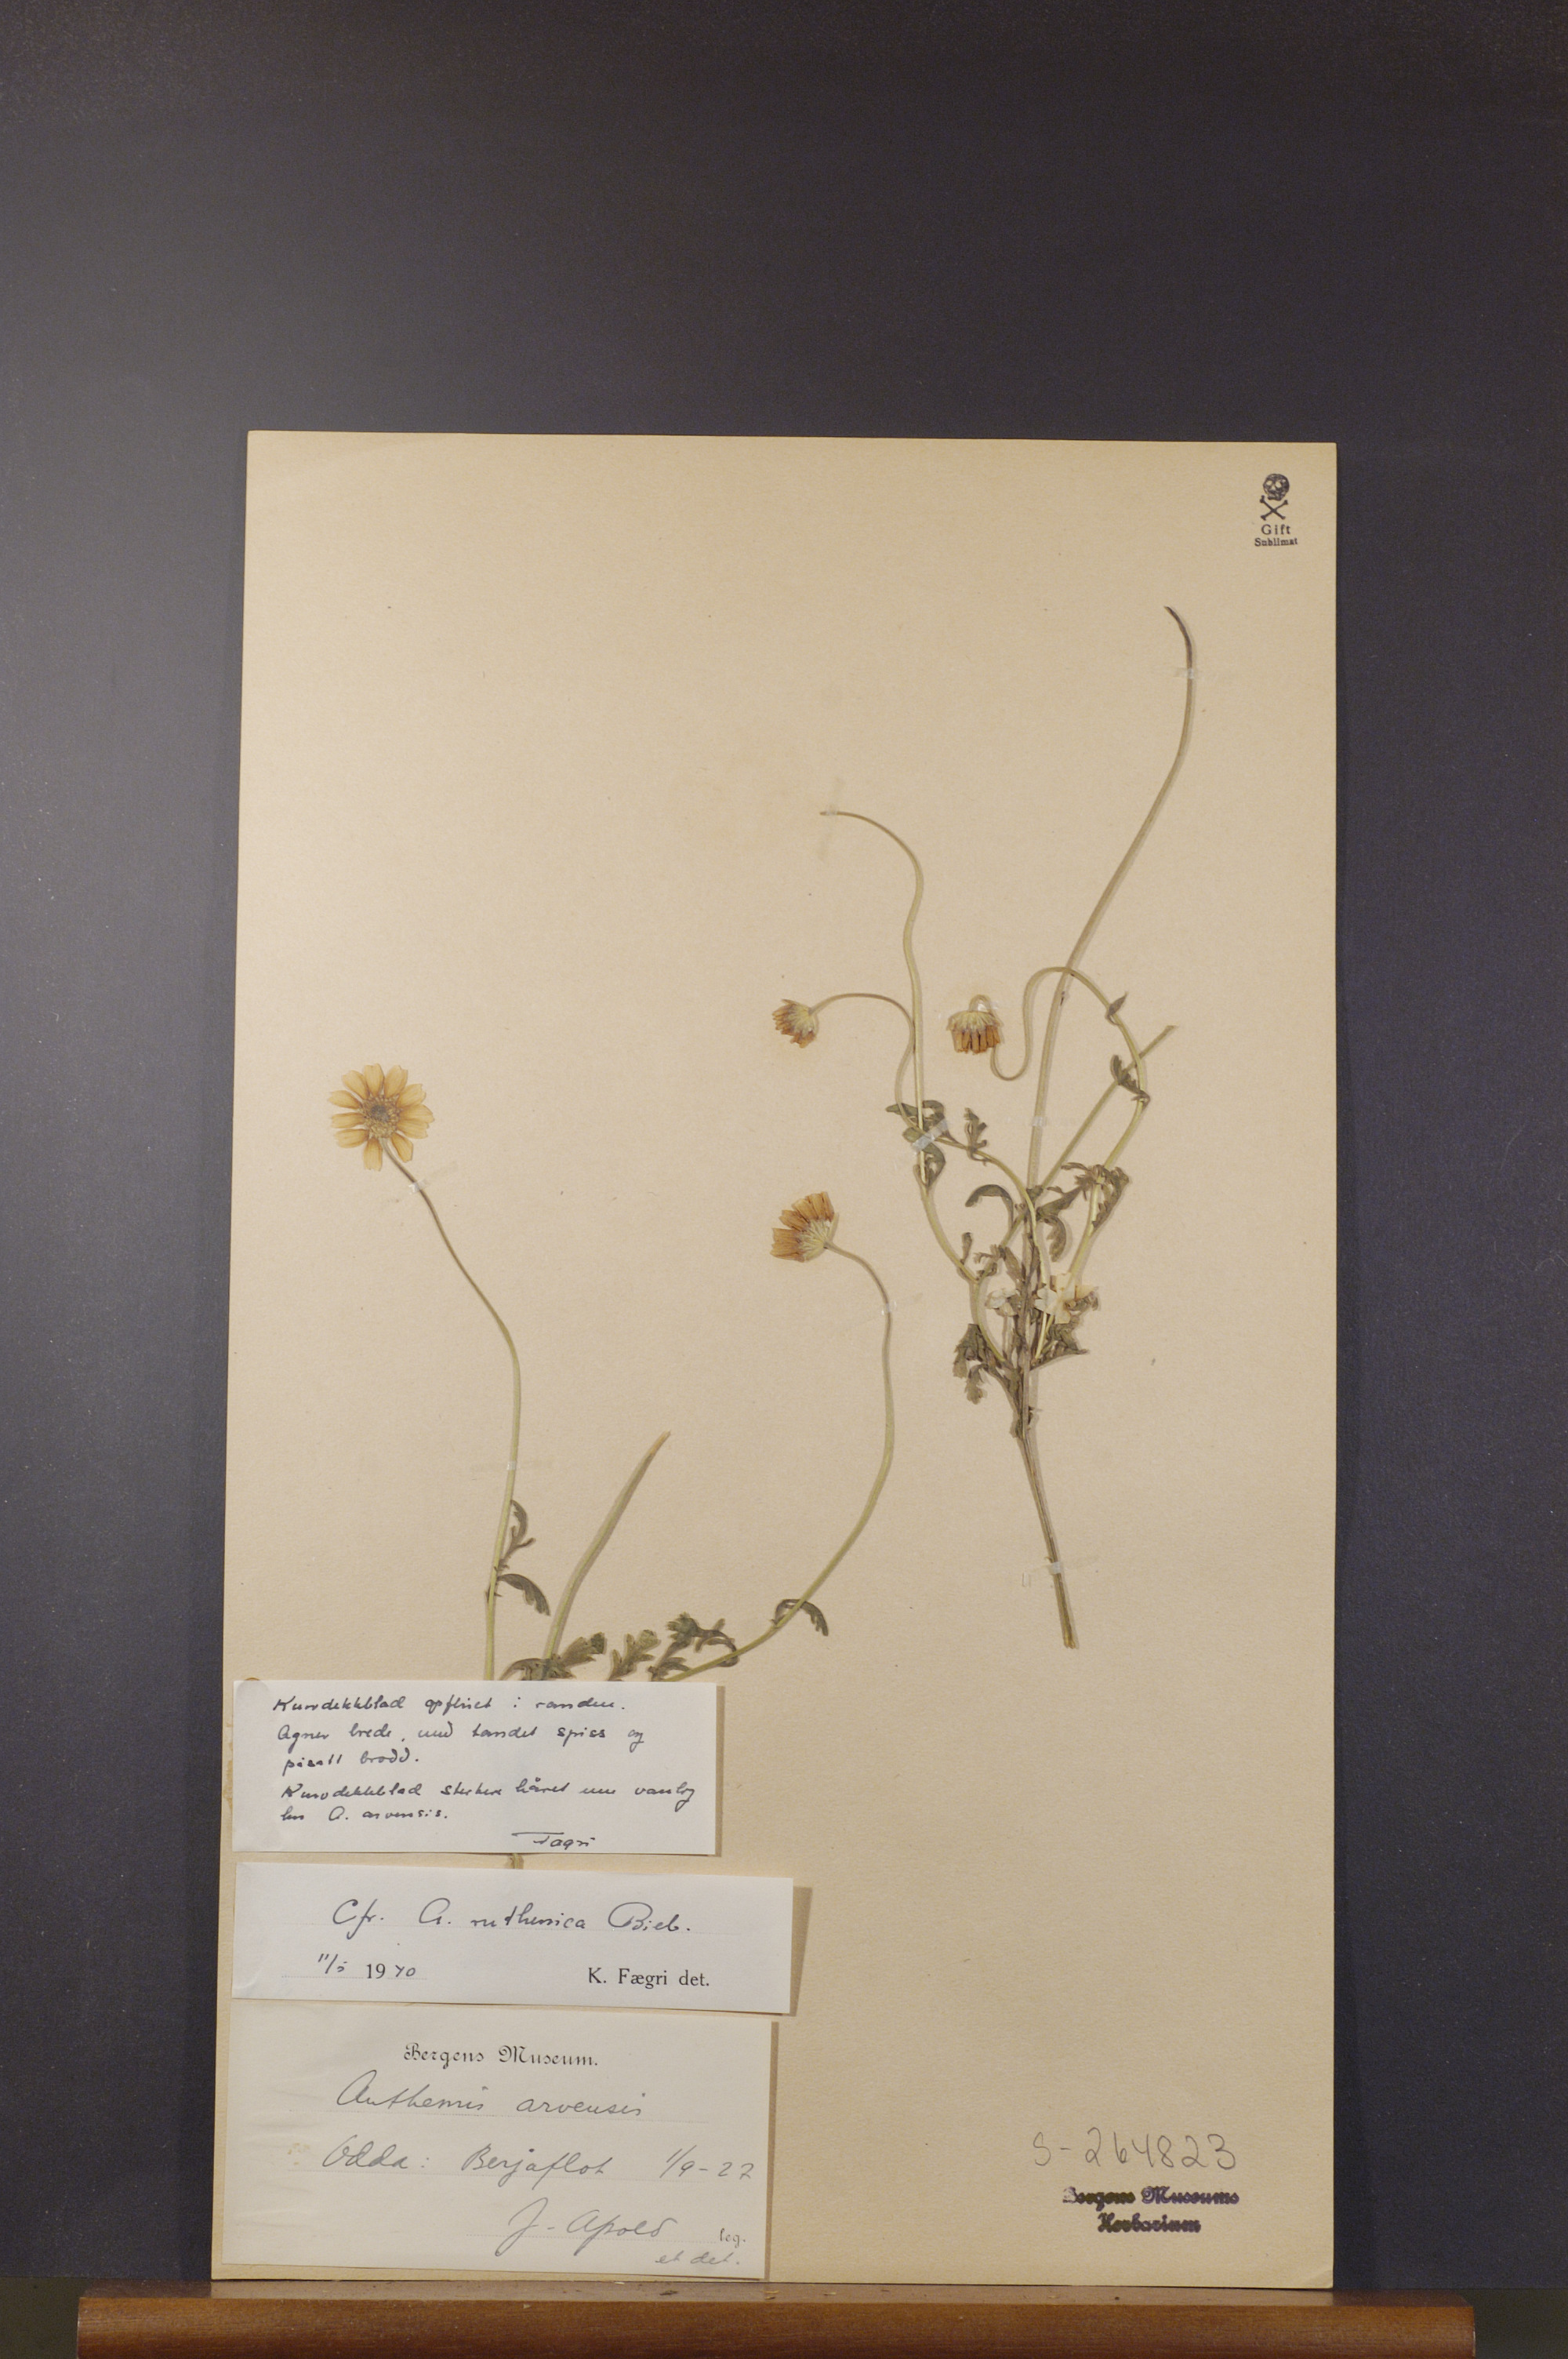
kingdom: Plantae
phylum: Tracheophyta
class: Magnoliopsida
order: Asterales
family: Asteraceae
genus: Anthemis
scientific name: Anthemis ruthenica
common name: Eastern chamomile
